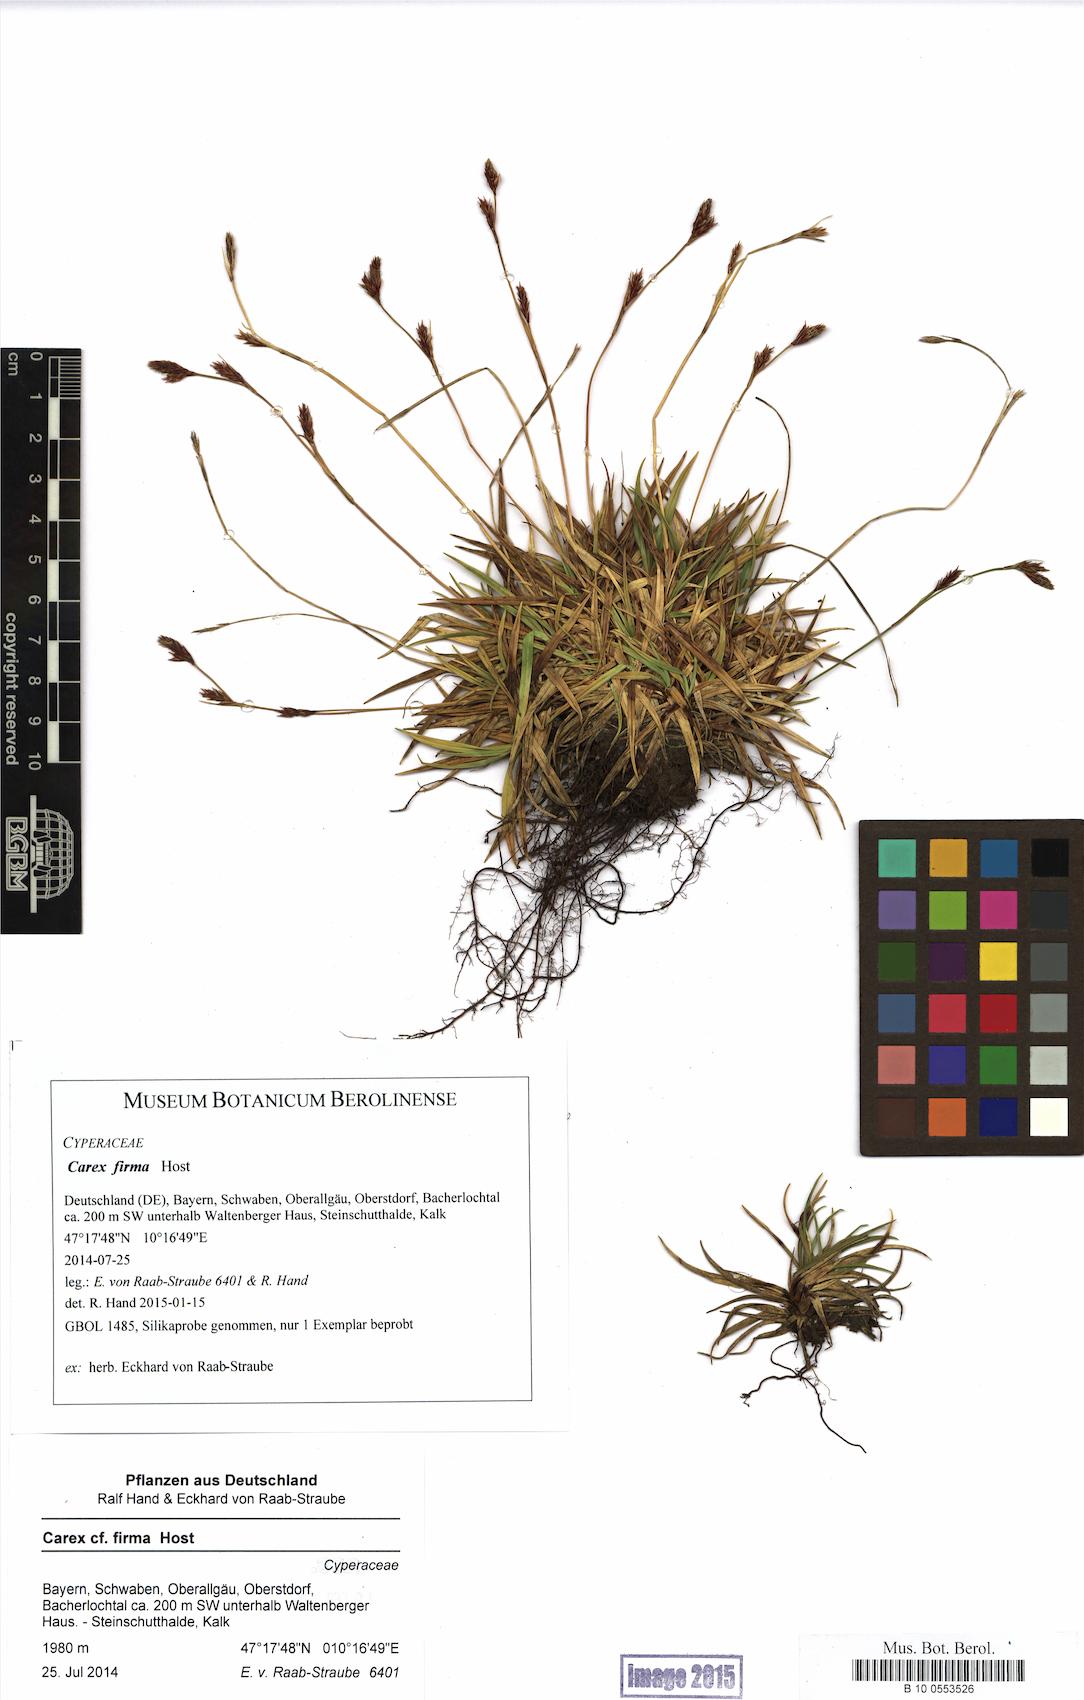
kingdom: Plantae
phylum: Tracheophyta
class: Liliopsida
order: Poales
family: Cyperaceae
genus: Carex
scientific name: Carex firma
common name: Dwarf pillow sedge
